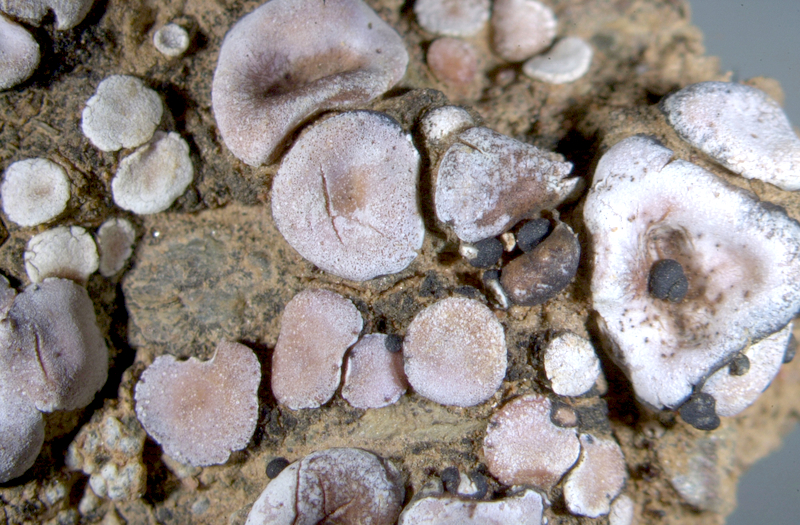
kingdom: Fungi
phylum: Ascomycota
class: Lecanoromycetes
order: Lecanorales
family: Psoraceae
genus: Psora
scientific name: Psora crenata
